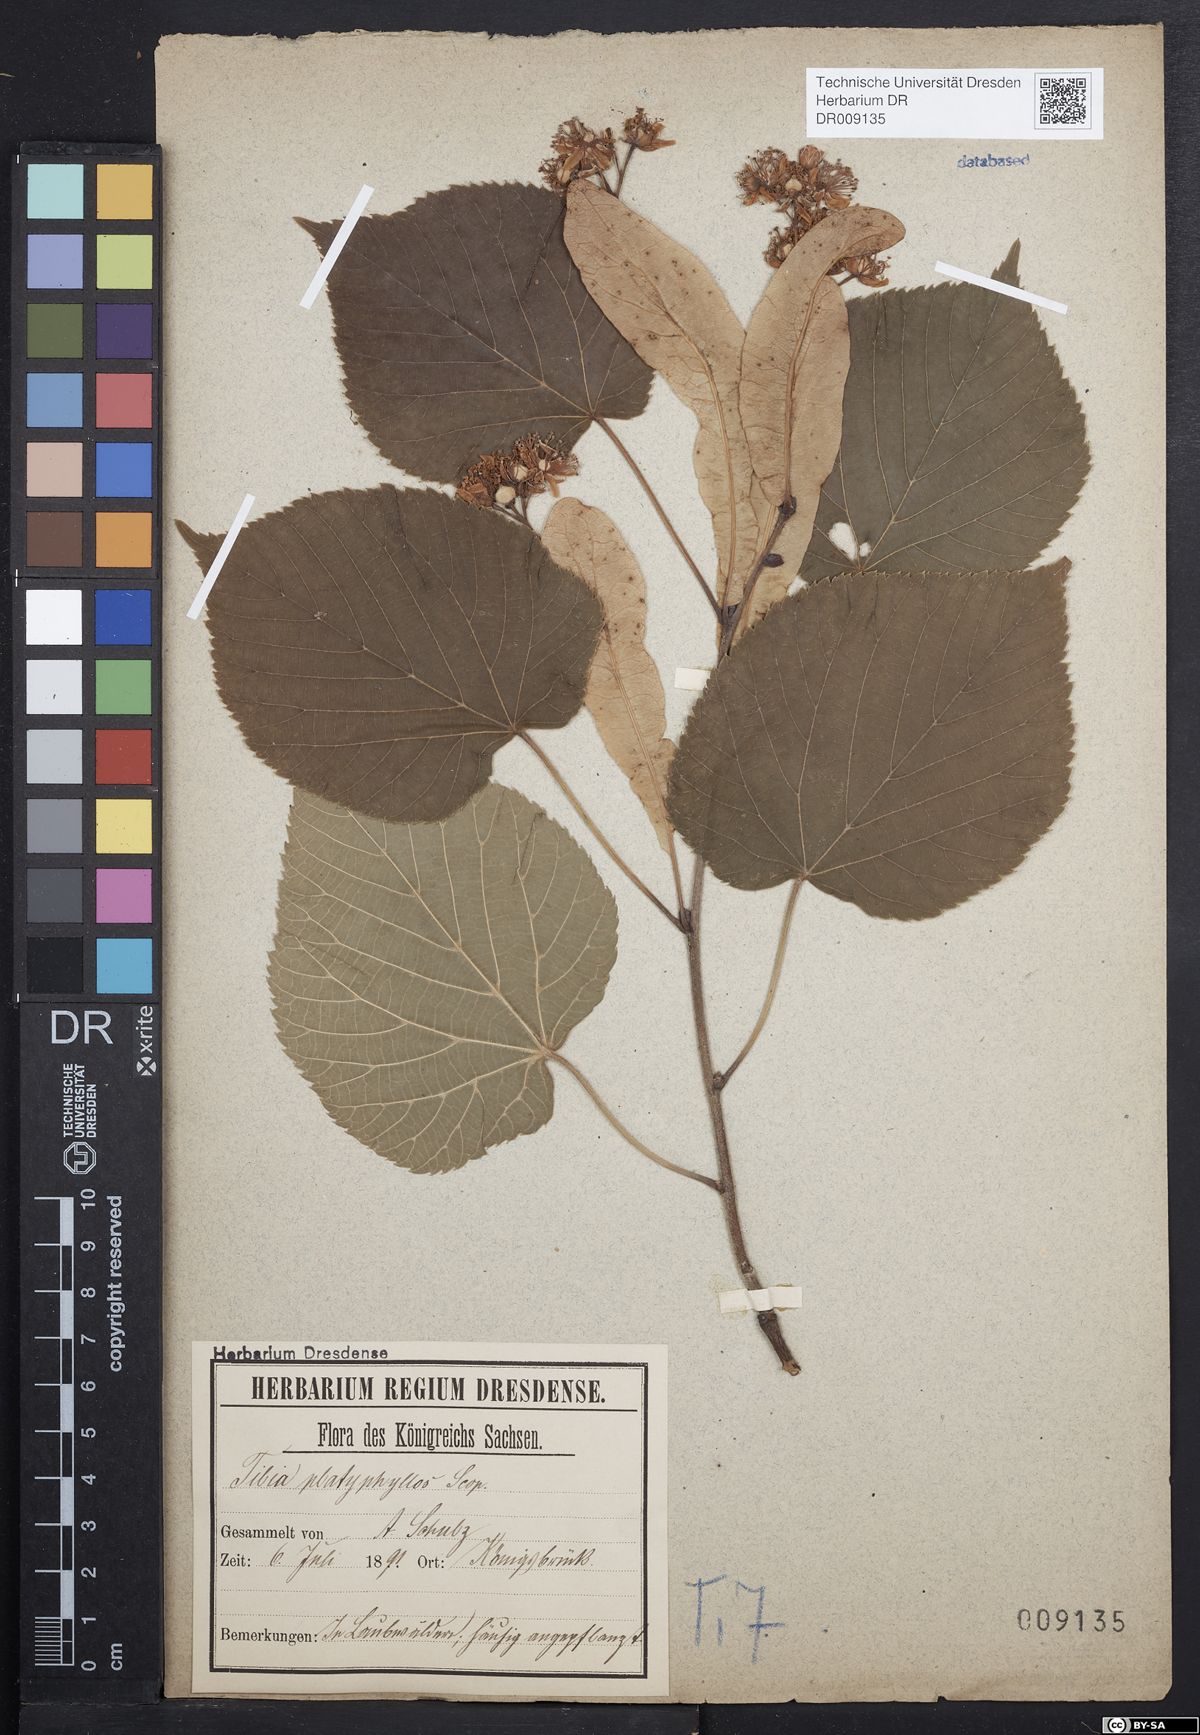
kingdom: Plantae
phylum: Tracheophyta
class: Magnoliopsida
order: Malvales
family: Malvaceae
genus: Tilia
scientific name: Tilia platyphyllos
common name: Large-leaved lime
